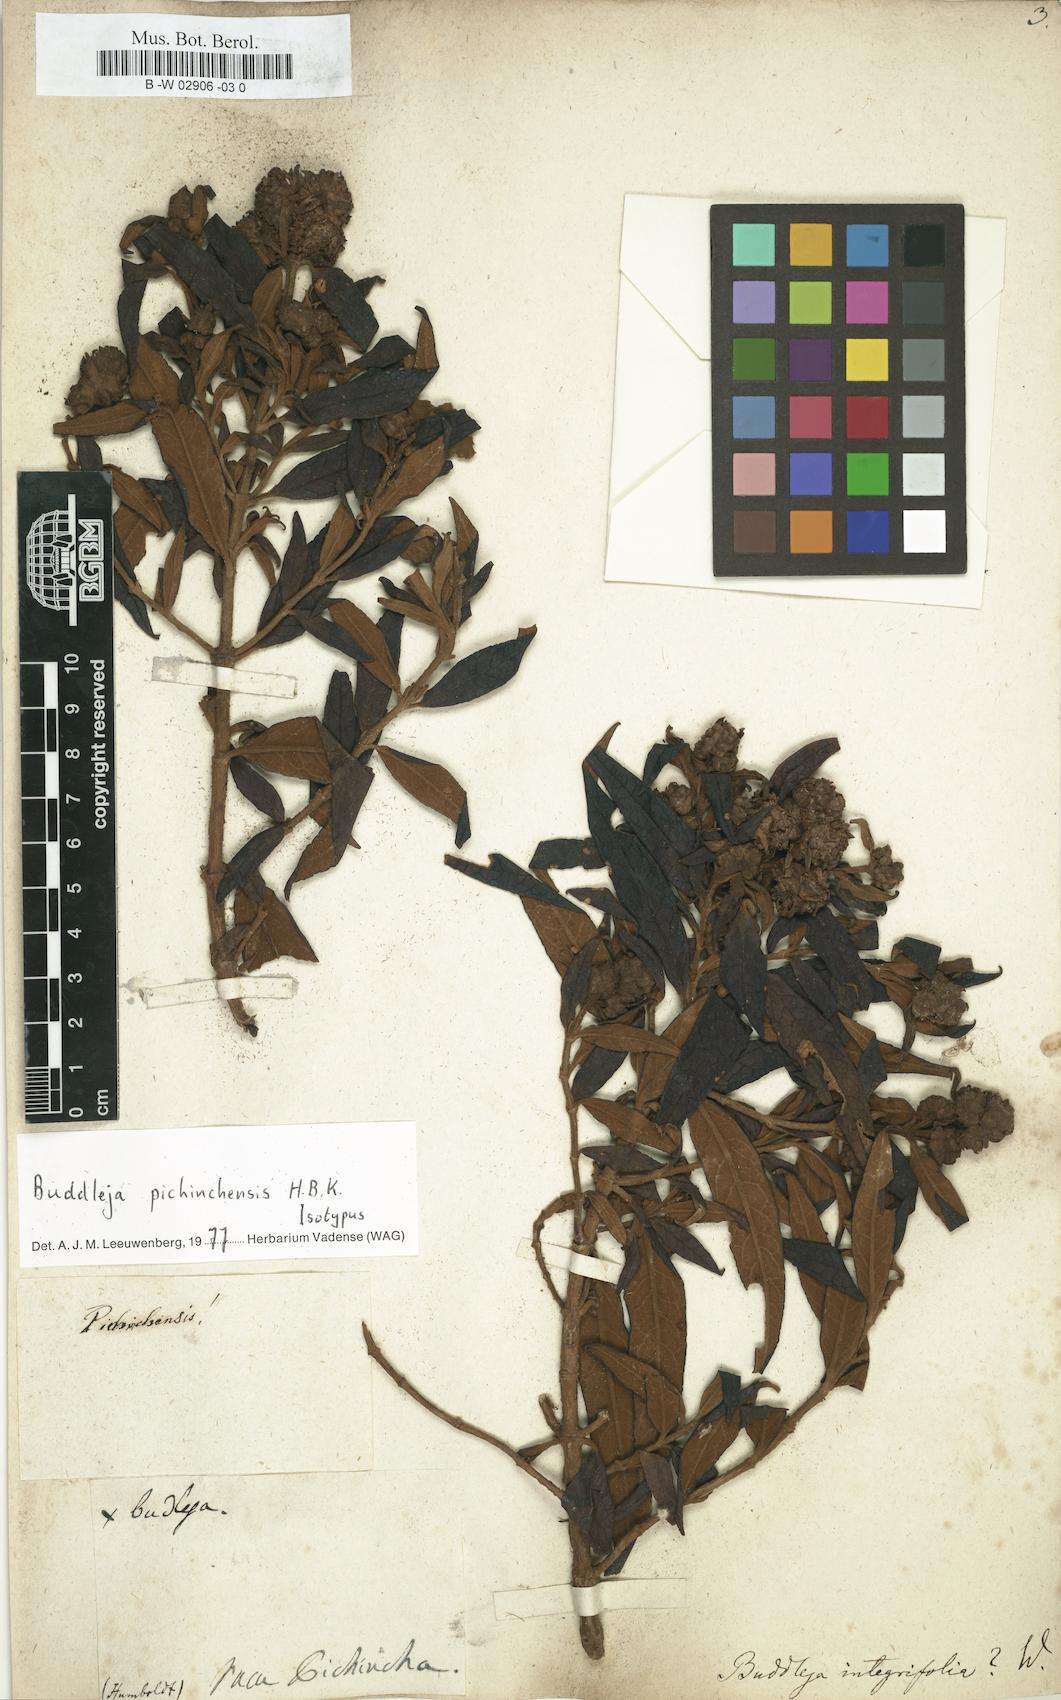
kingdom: Plantae
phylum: Tracheophyta
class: Magnoliopsida
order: Lamiales
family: Scrophulariaceae
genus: Buddleja
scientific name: Buddleja parviflora
